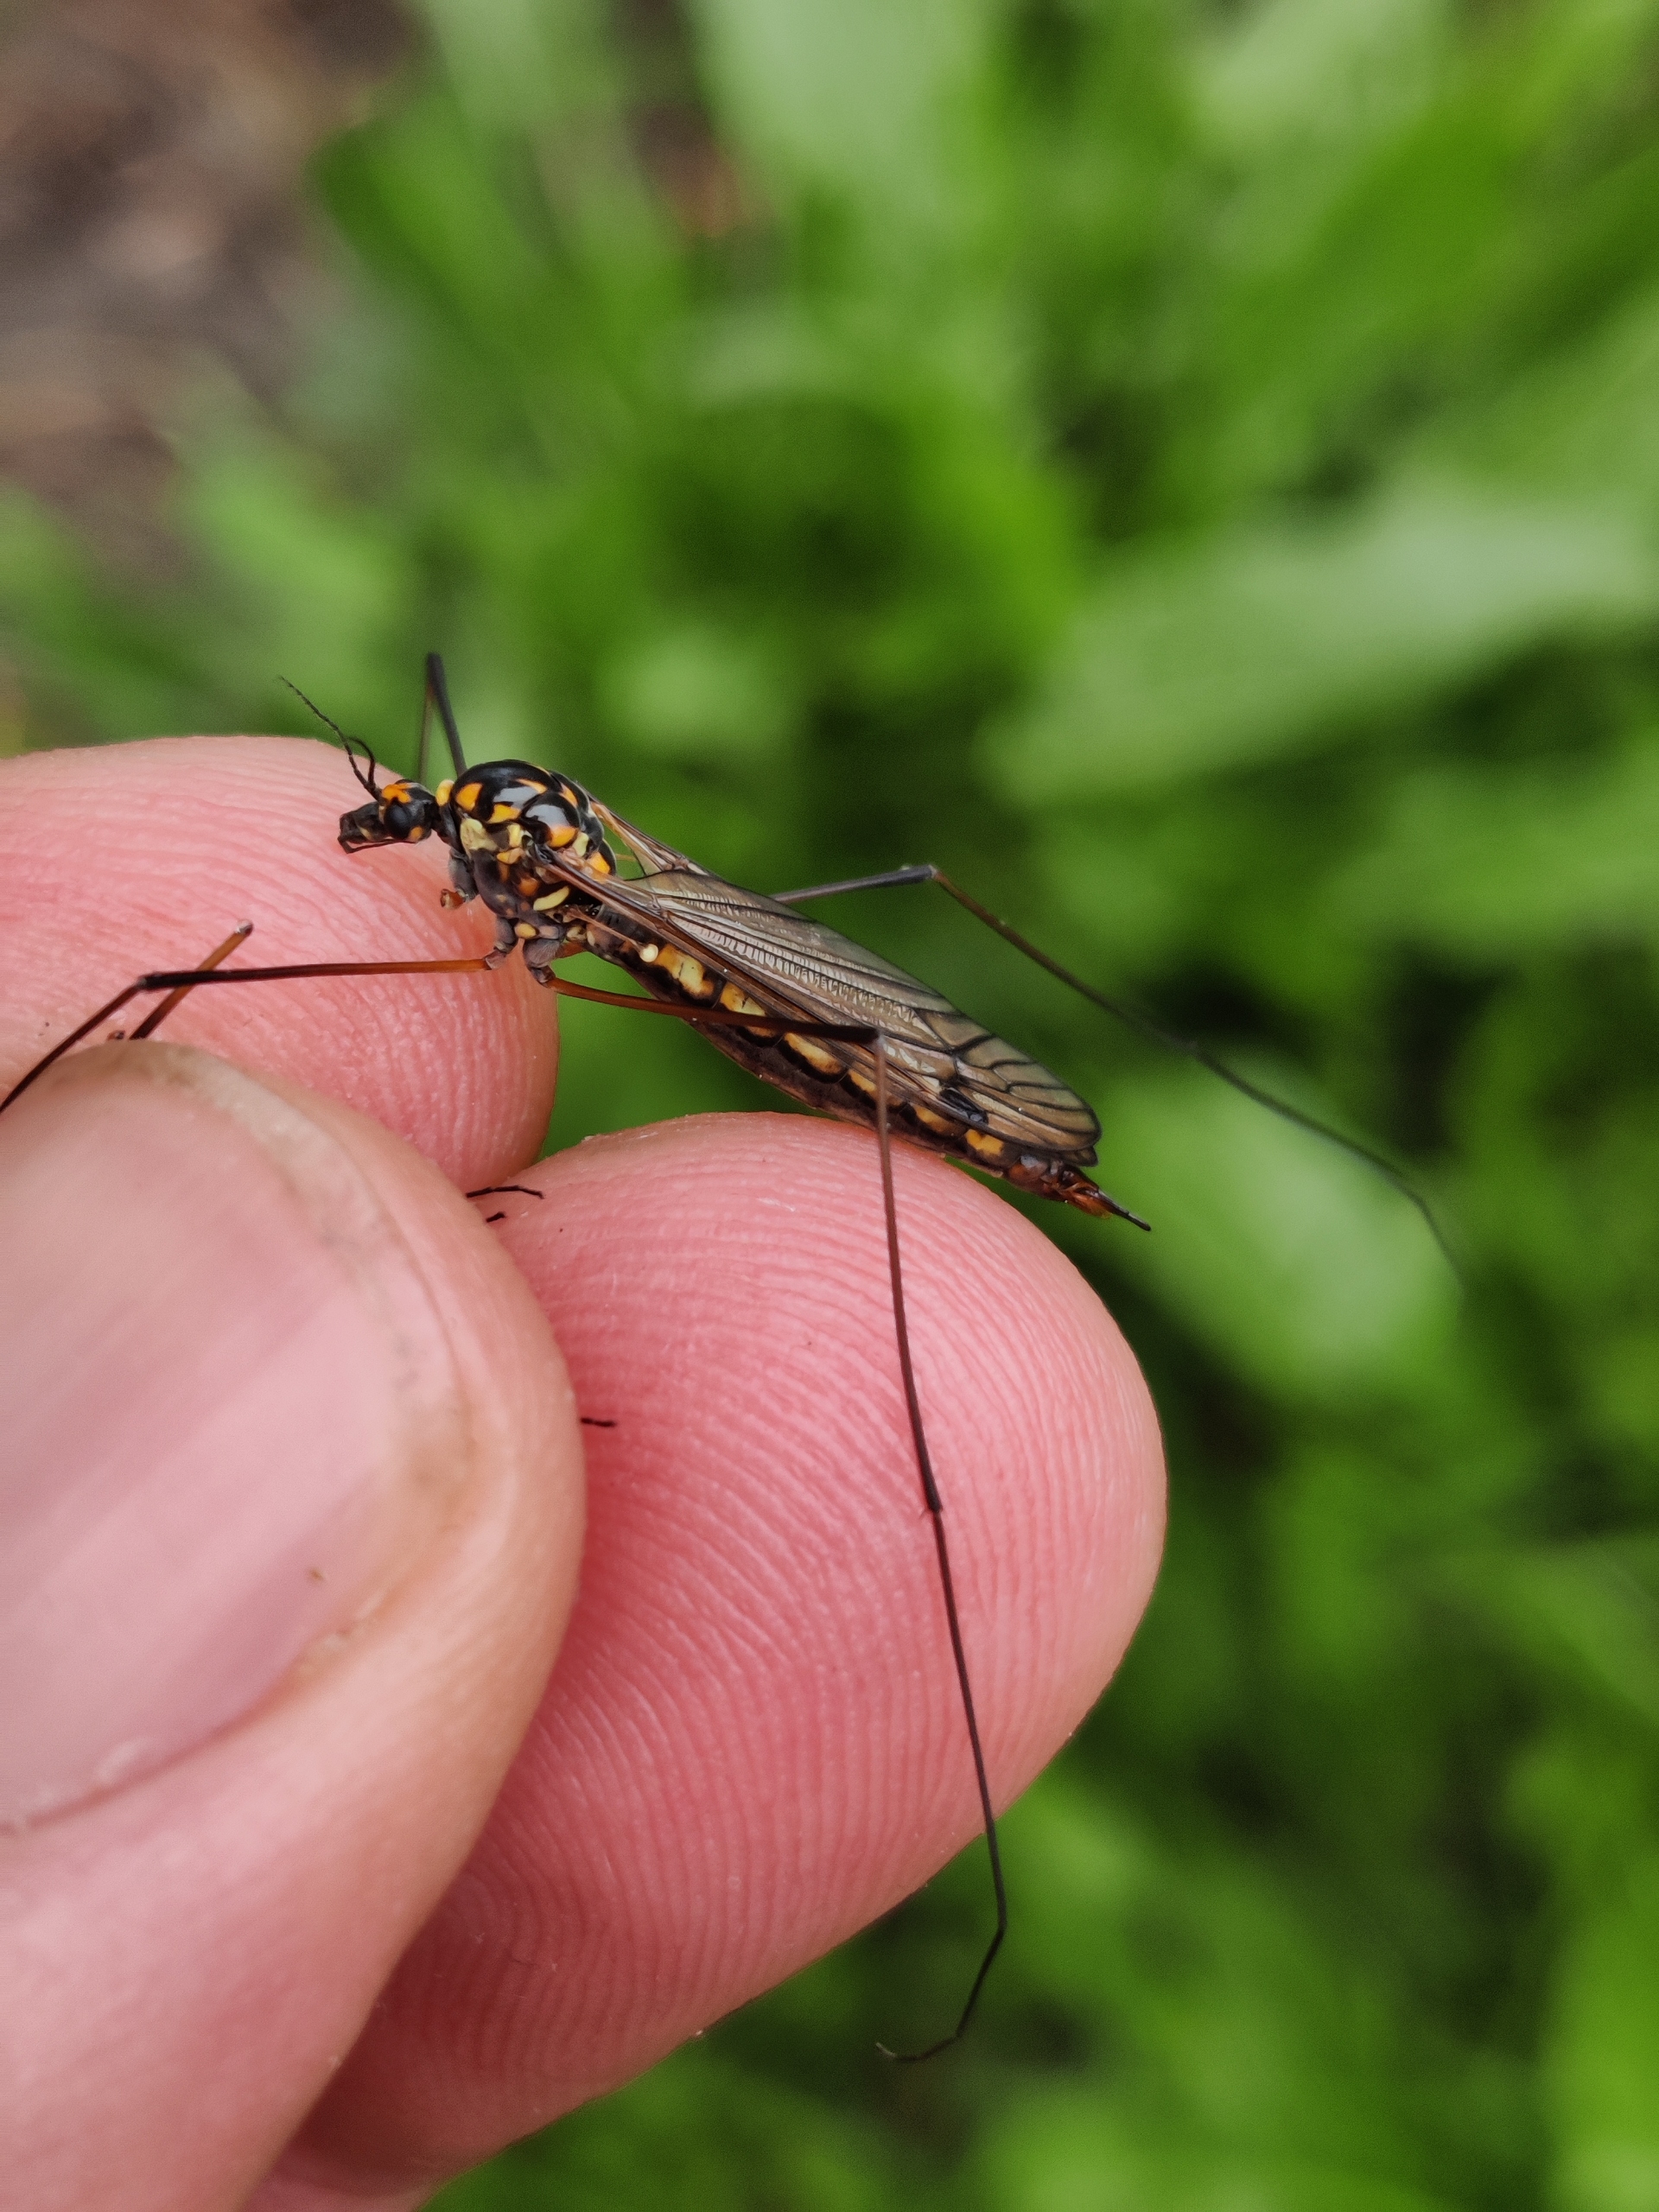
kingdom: Animalia
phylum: Arthropoda
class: Insecta
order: Diptera
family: Tipulidae
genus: Nephrotoma
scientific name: Nephrotoma pratensis
